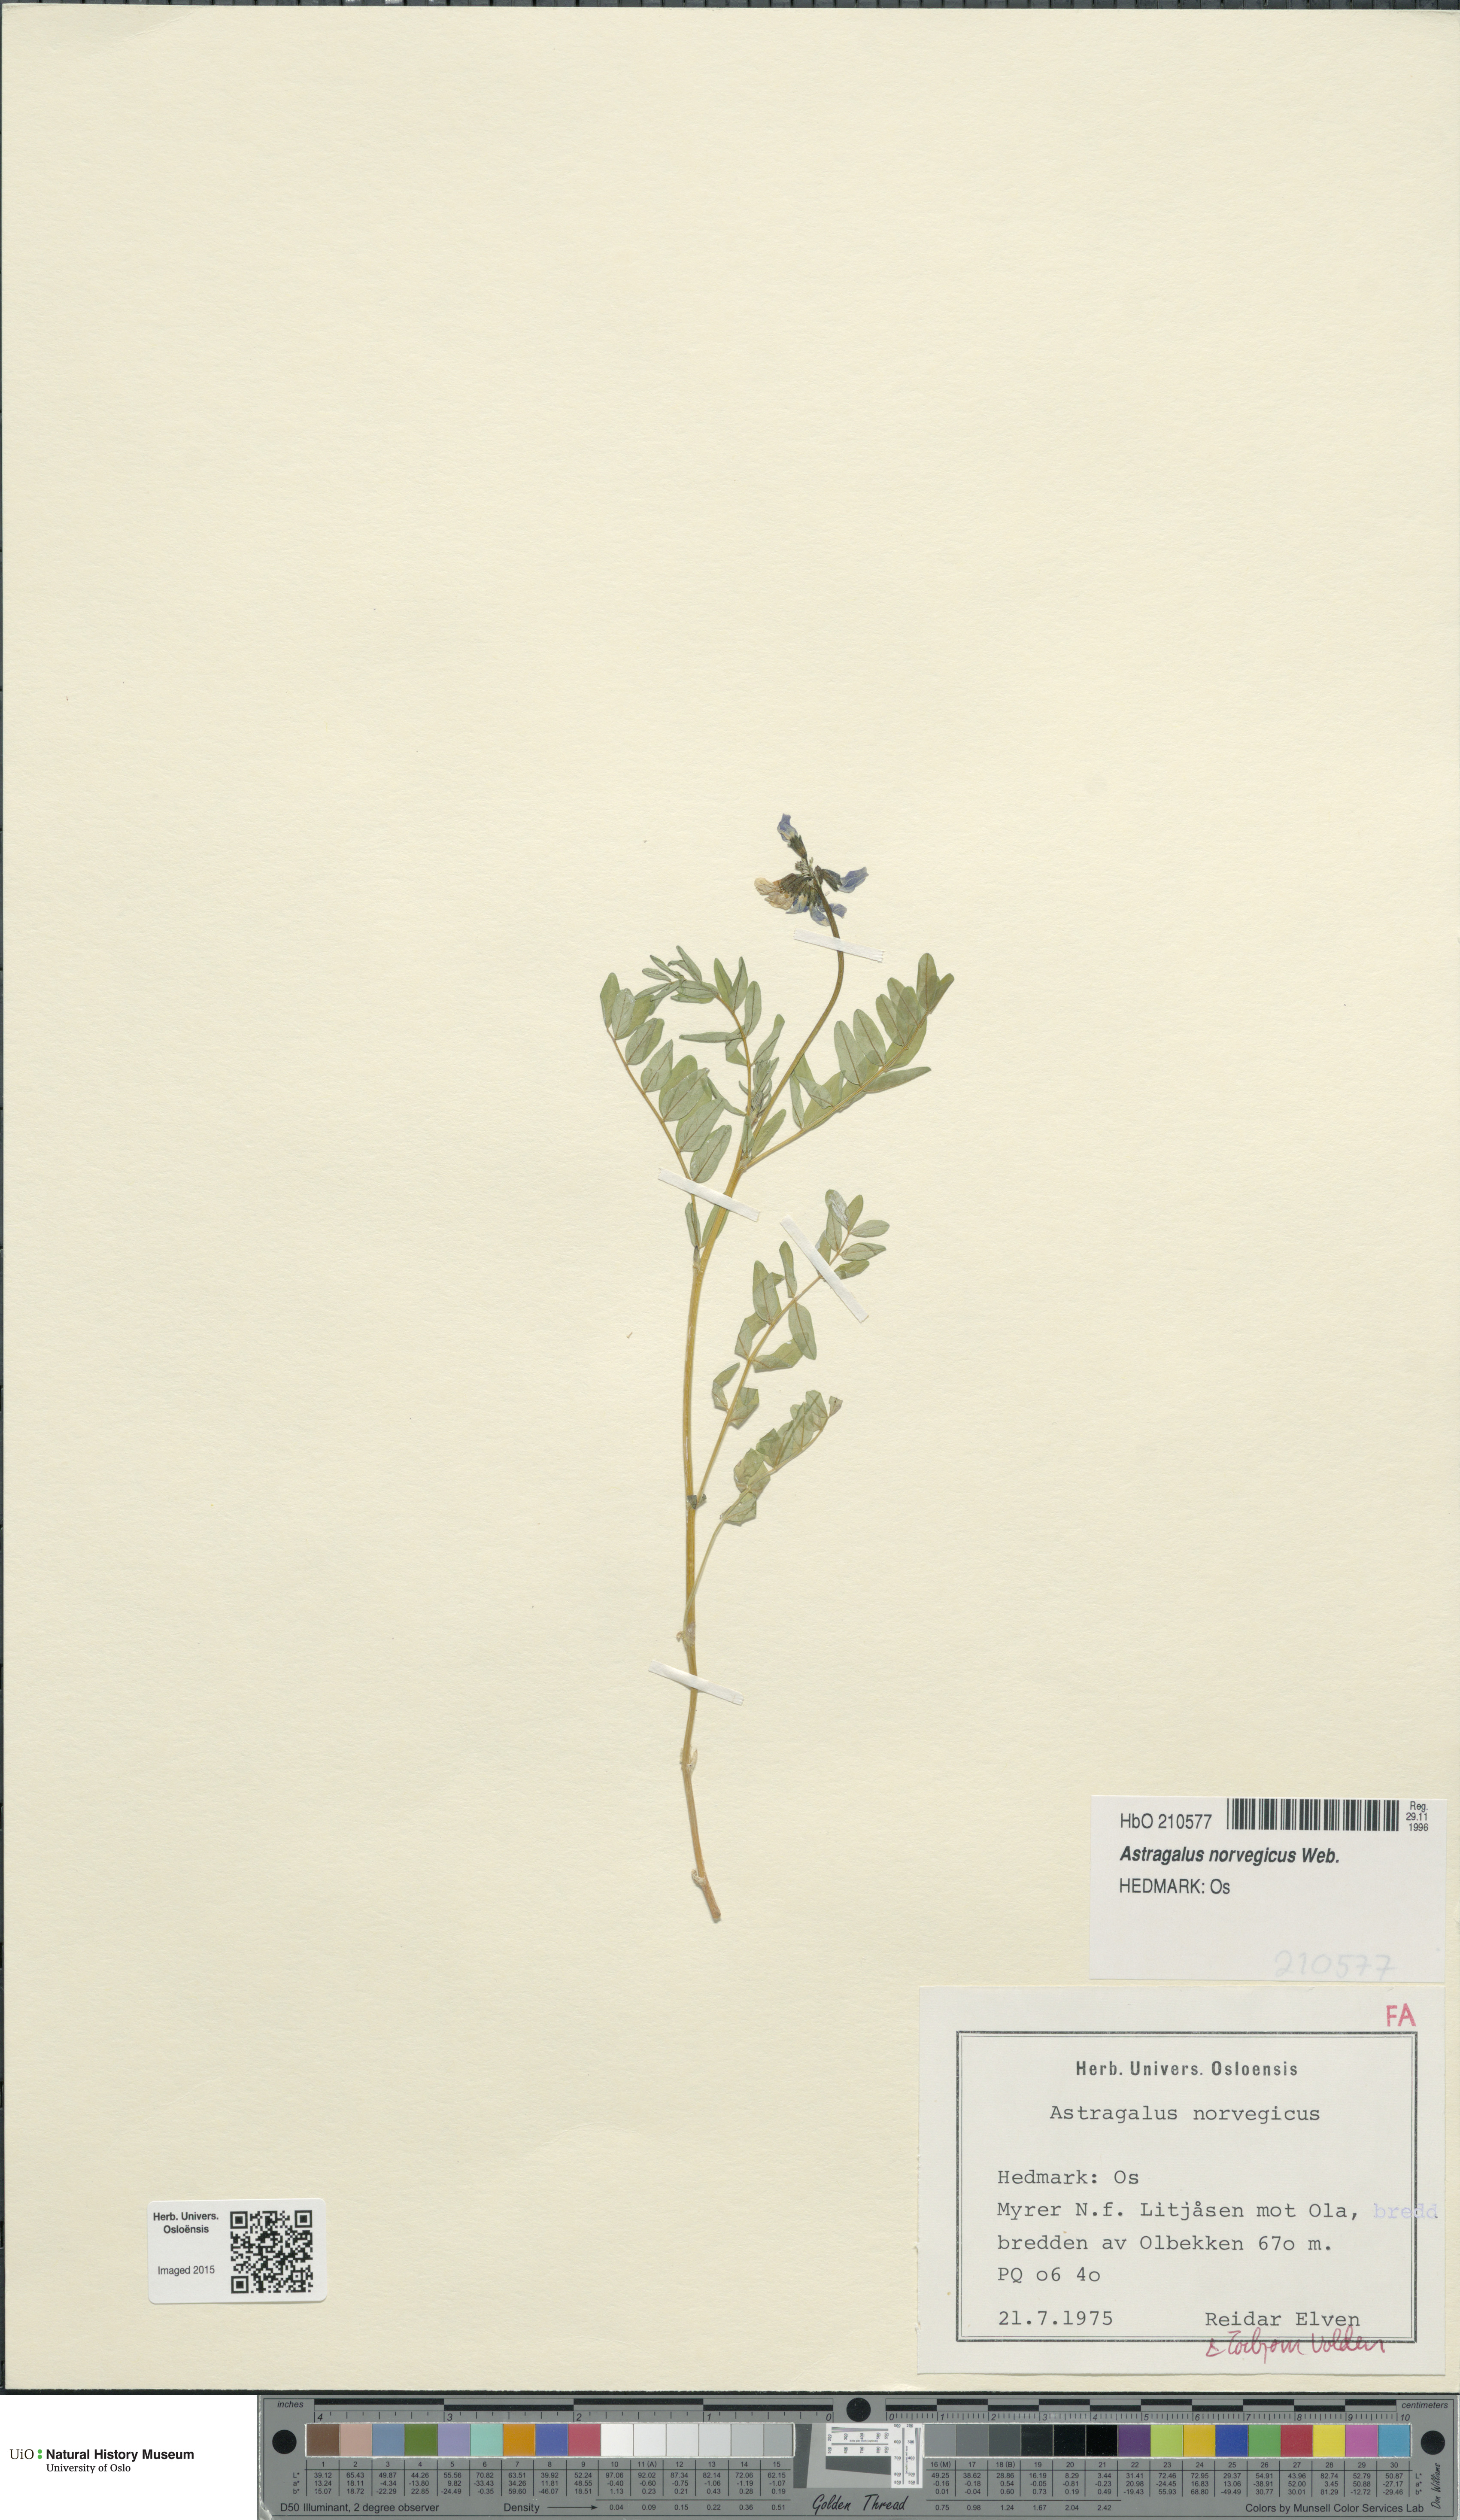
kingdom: Plantae
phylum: Tracheophyta
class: Magnoliopsida
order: Fabales
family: Fabaceae
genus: Astragalus
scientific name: Astragalus norvegicus
